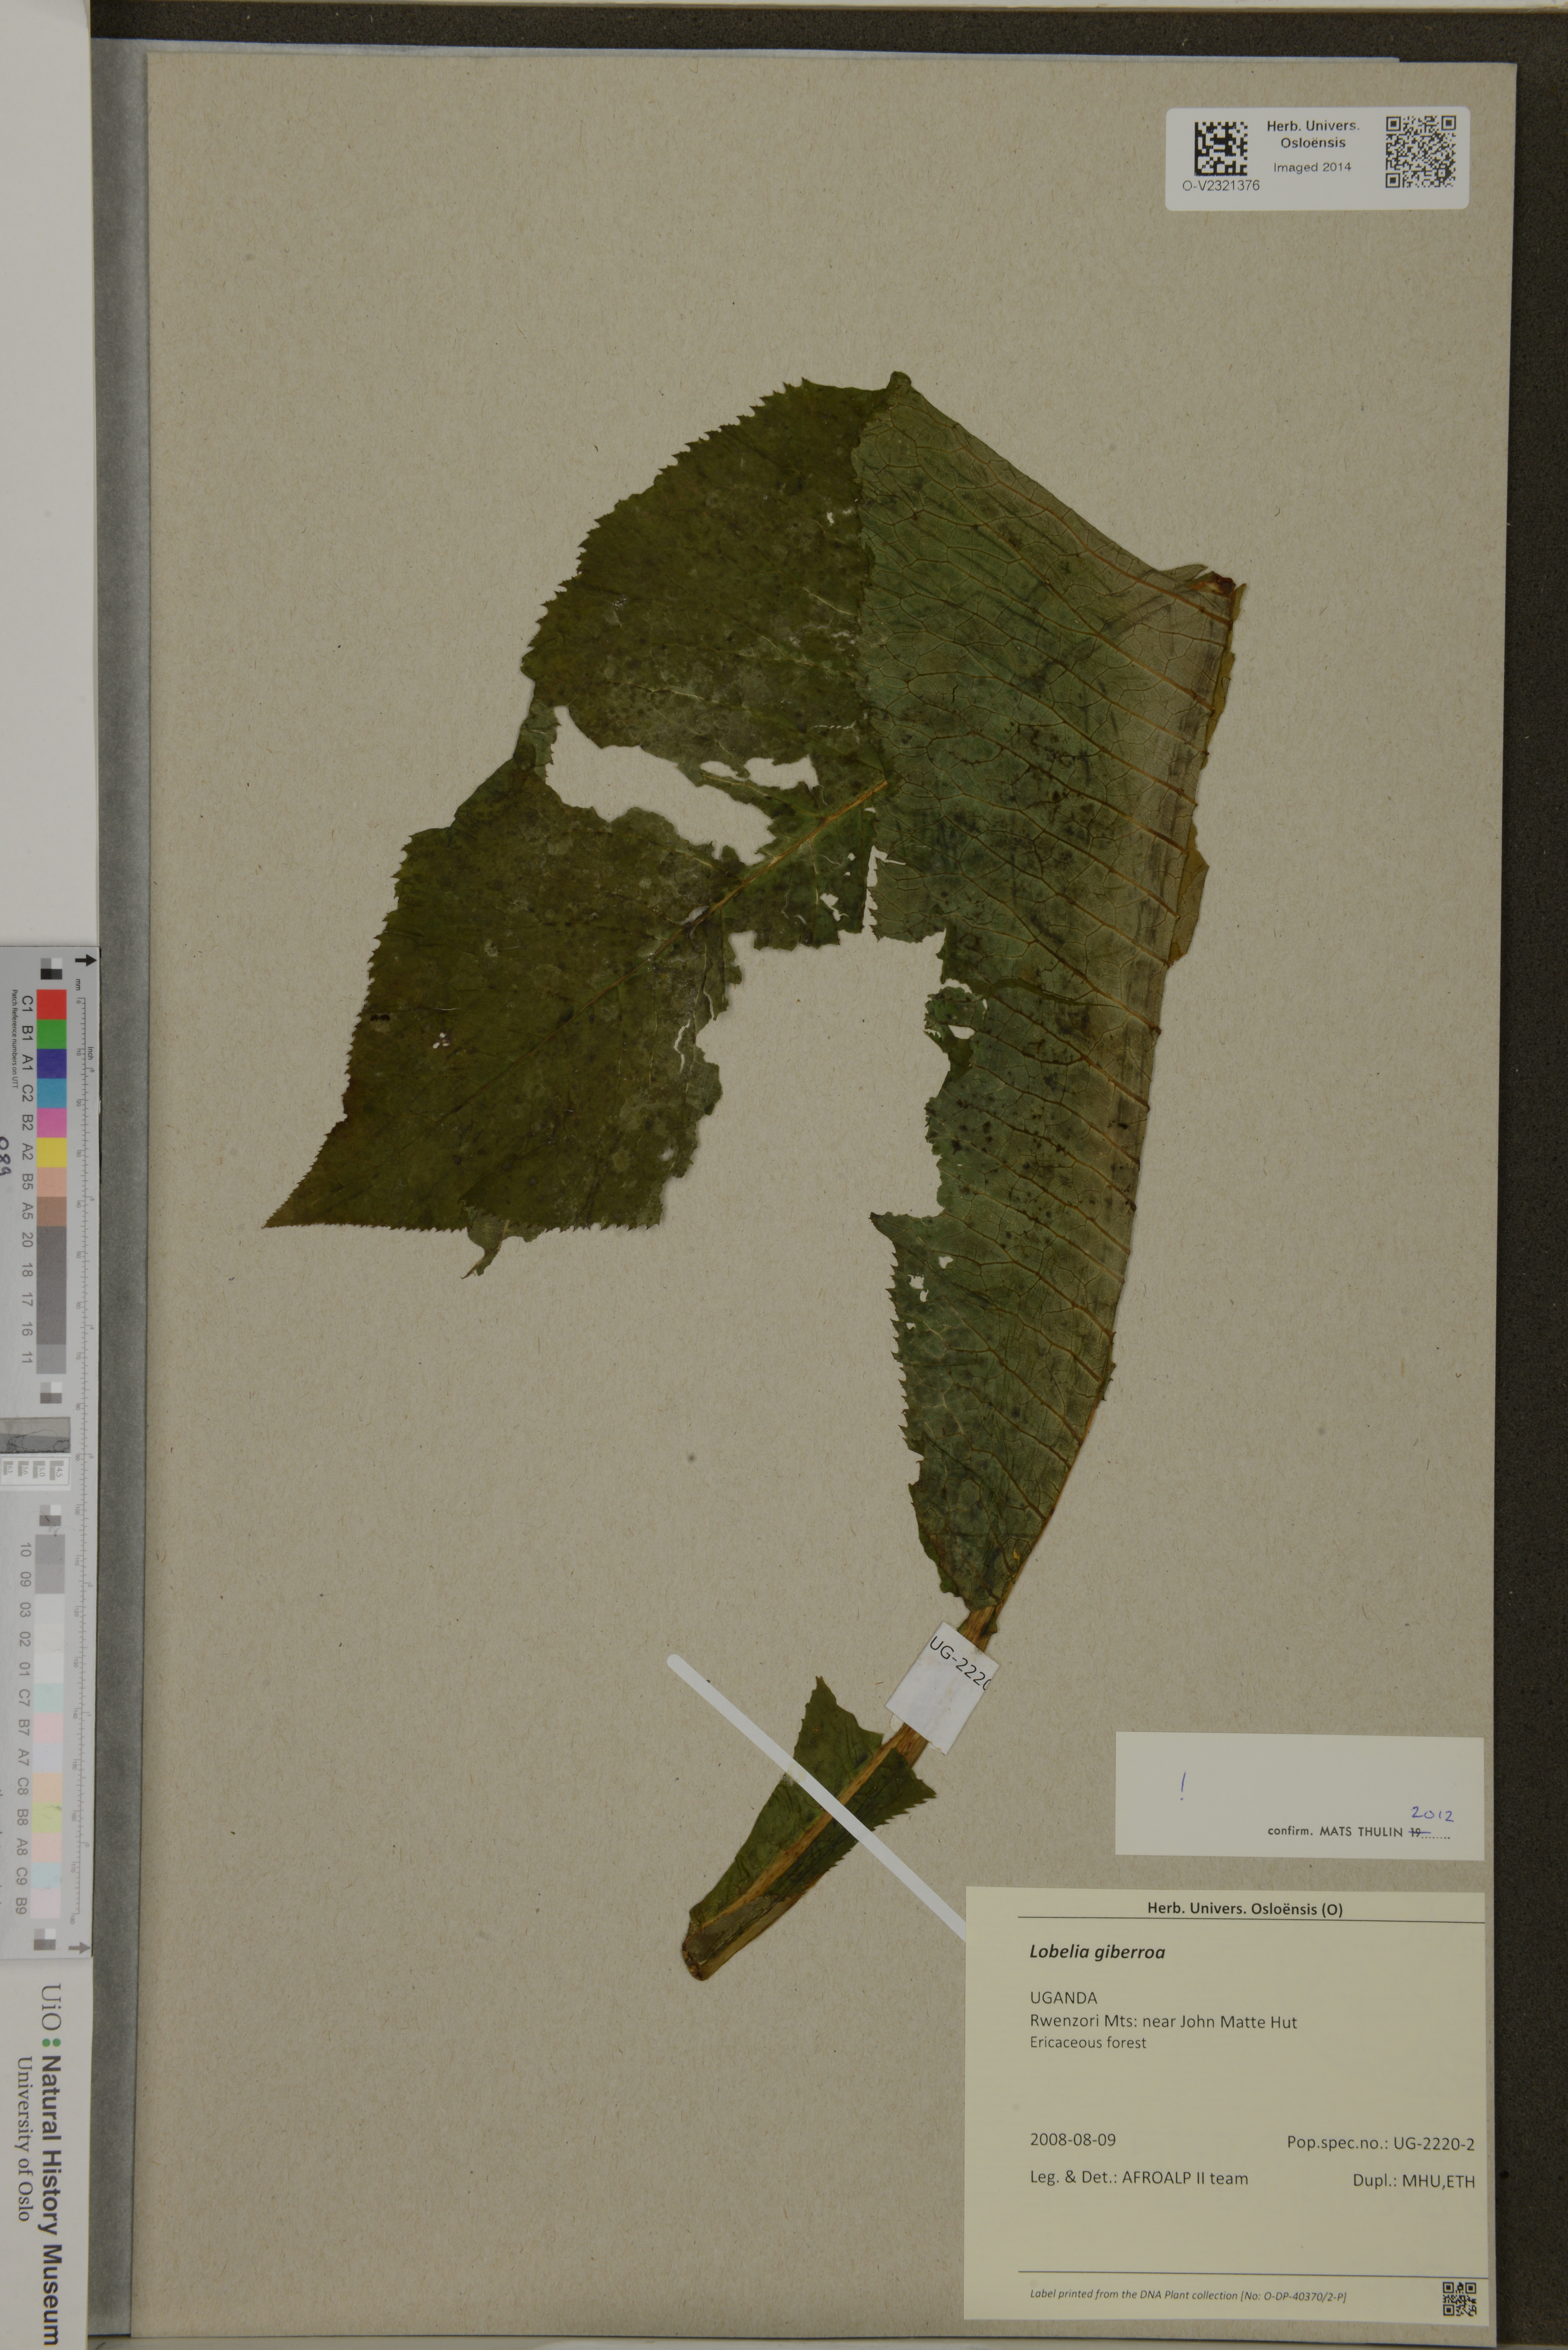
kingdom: Plantae
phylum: Tracheophyta
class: Magnoliopsida
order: Asterales
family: Campanulaceae
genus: Lobelia
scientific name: Lobelia giberroa
